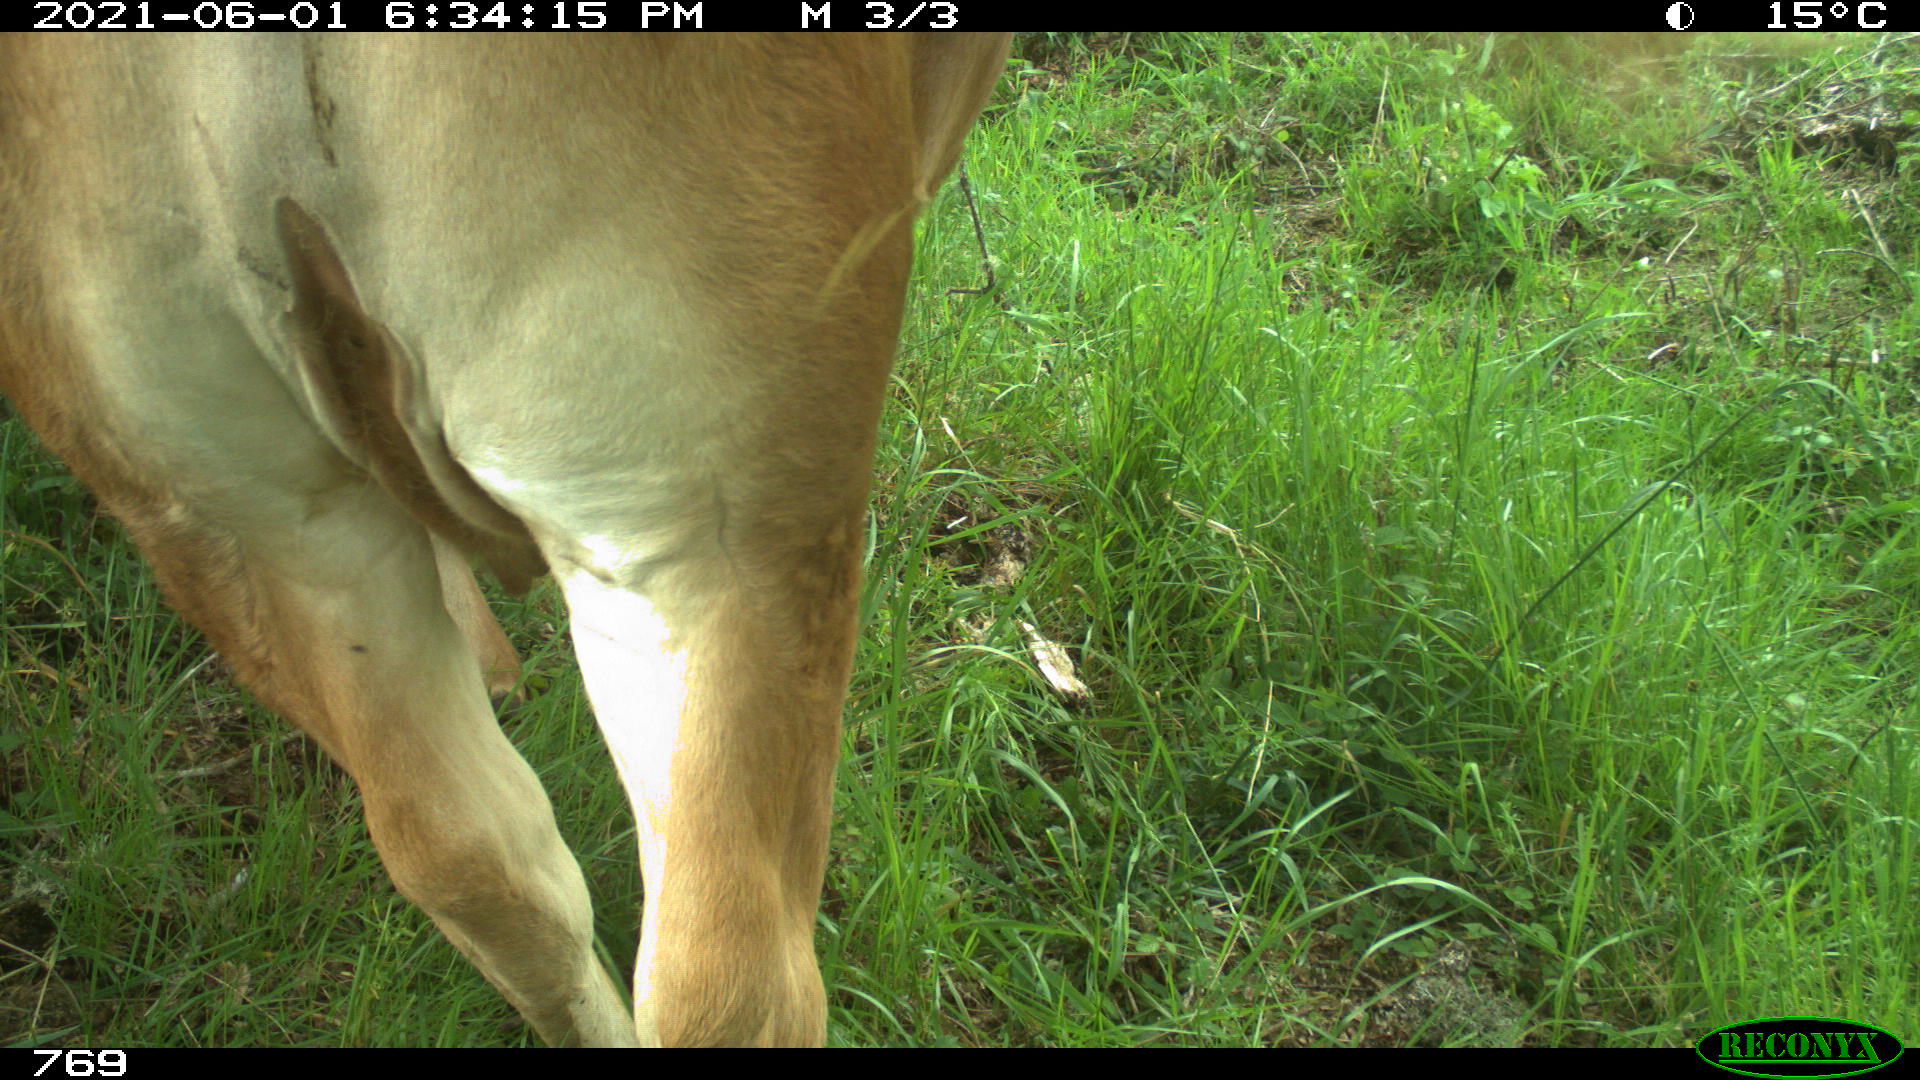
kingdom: Animalia
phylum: Chordata
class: Mammalia
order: Artiodactyla
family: Bovidae
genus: Bos
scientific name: Bos taurus
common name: Domesticated cattle
